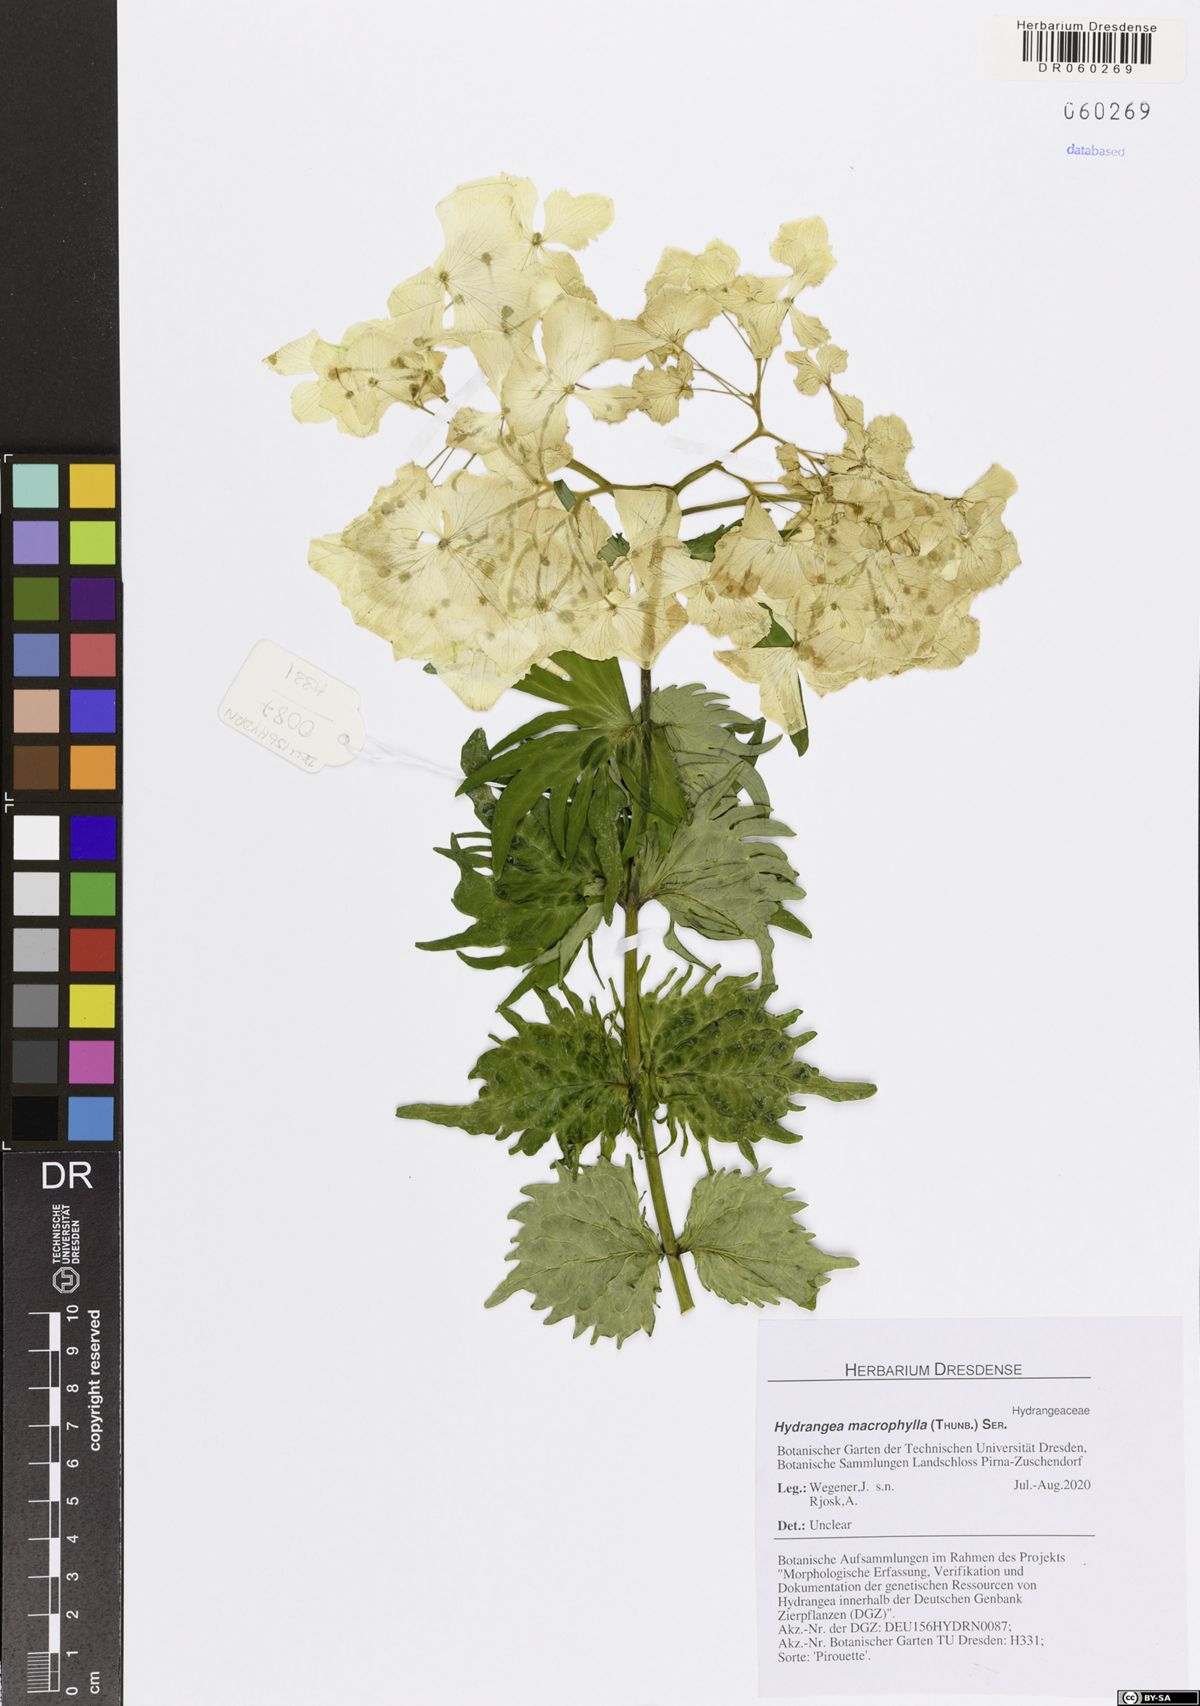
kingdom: Plantae
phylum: Tracheophyta
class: Magnoliopsida
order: Cornales
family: Hydrangeaceae
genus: Hydrangea
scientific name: Hydrangea macrophylla
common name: Hydrangea
